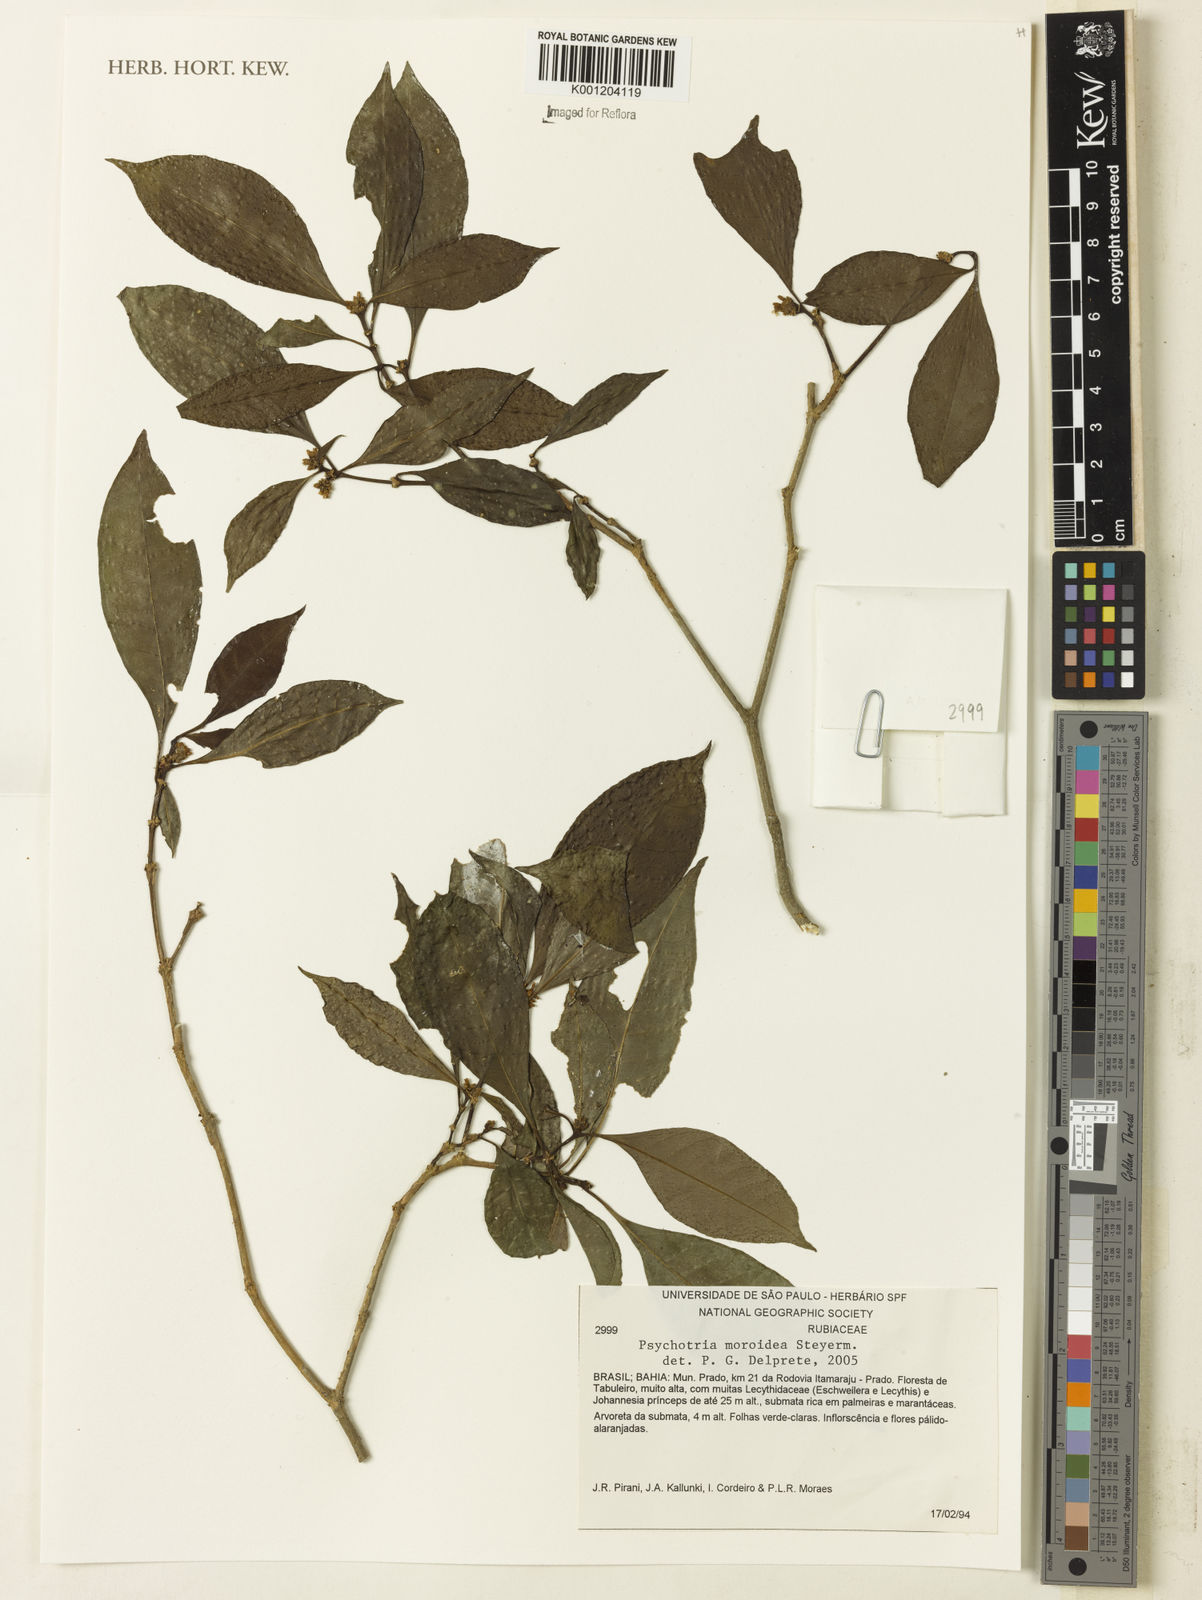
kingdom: Plantae
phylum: Tracheophyta
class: Magnoliopsida
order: Gentianales
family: Rubiaceae
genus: Eumachia
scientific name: Eumachia guianensis
